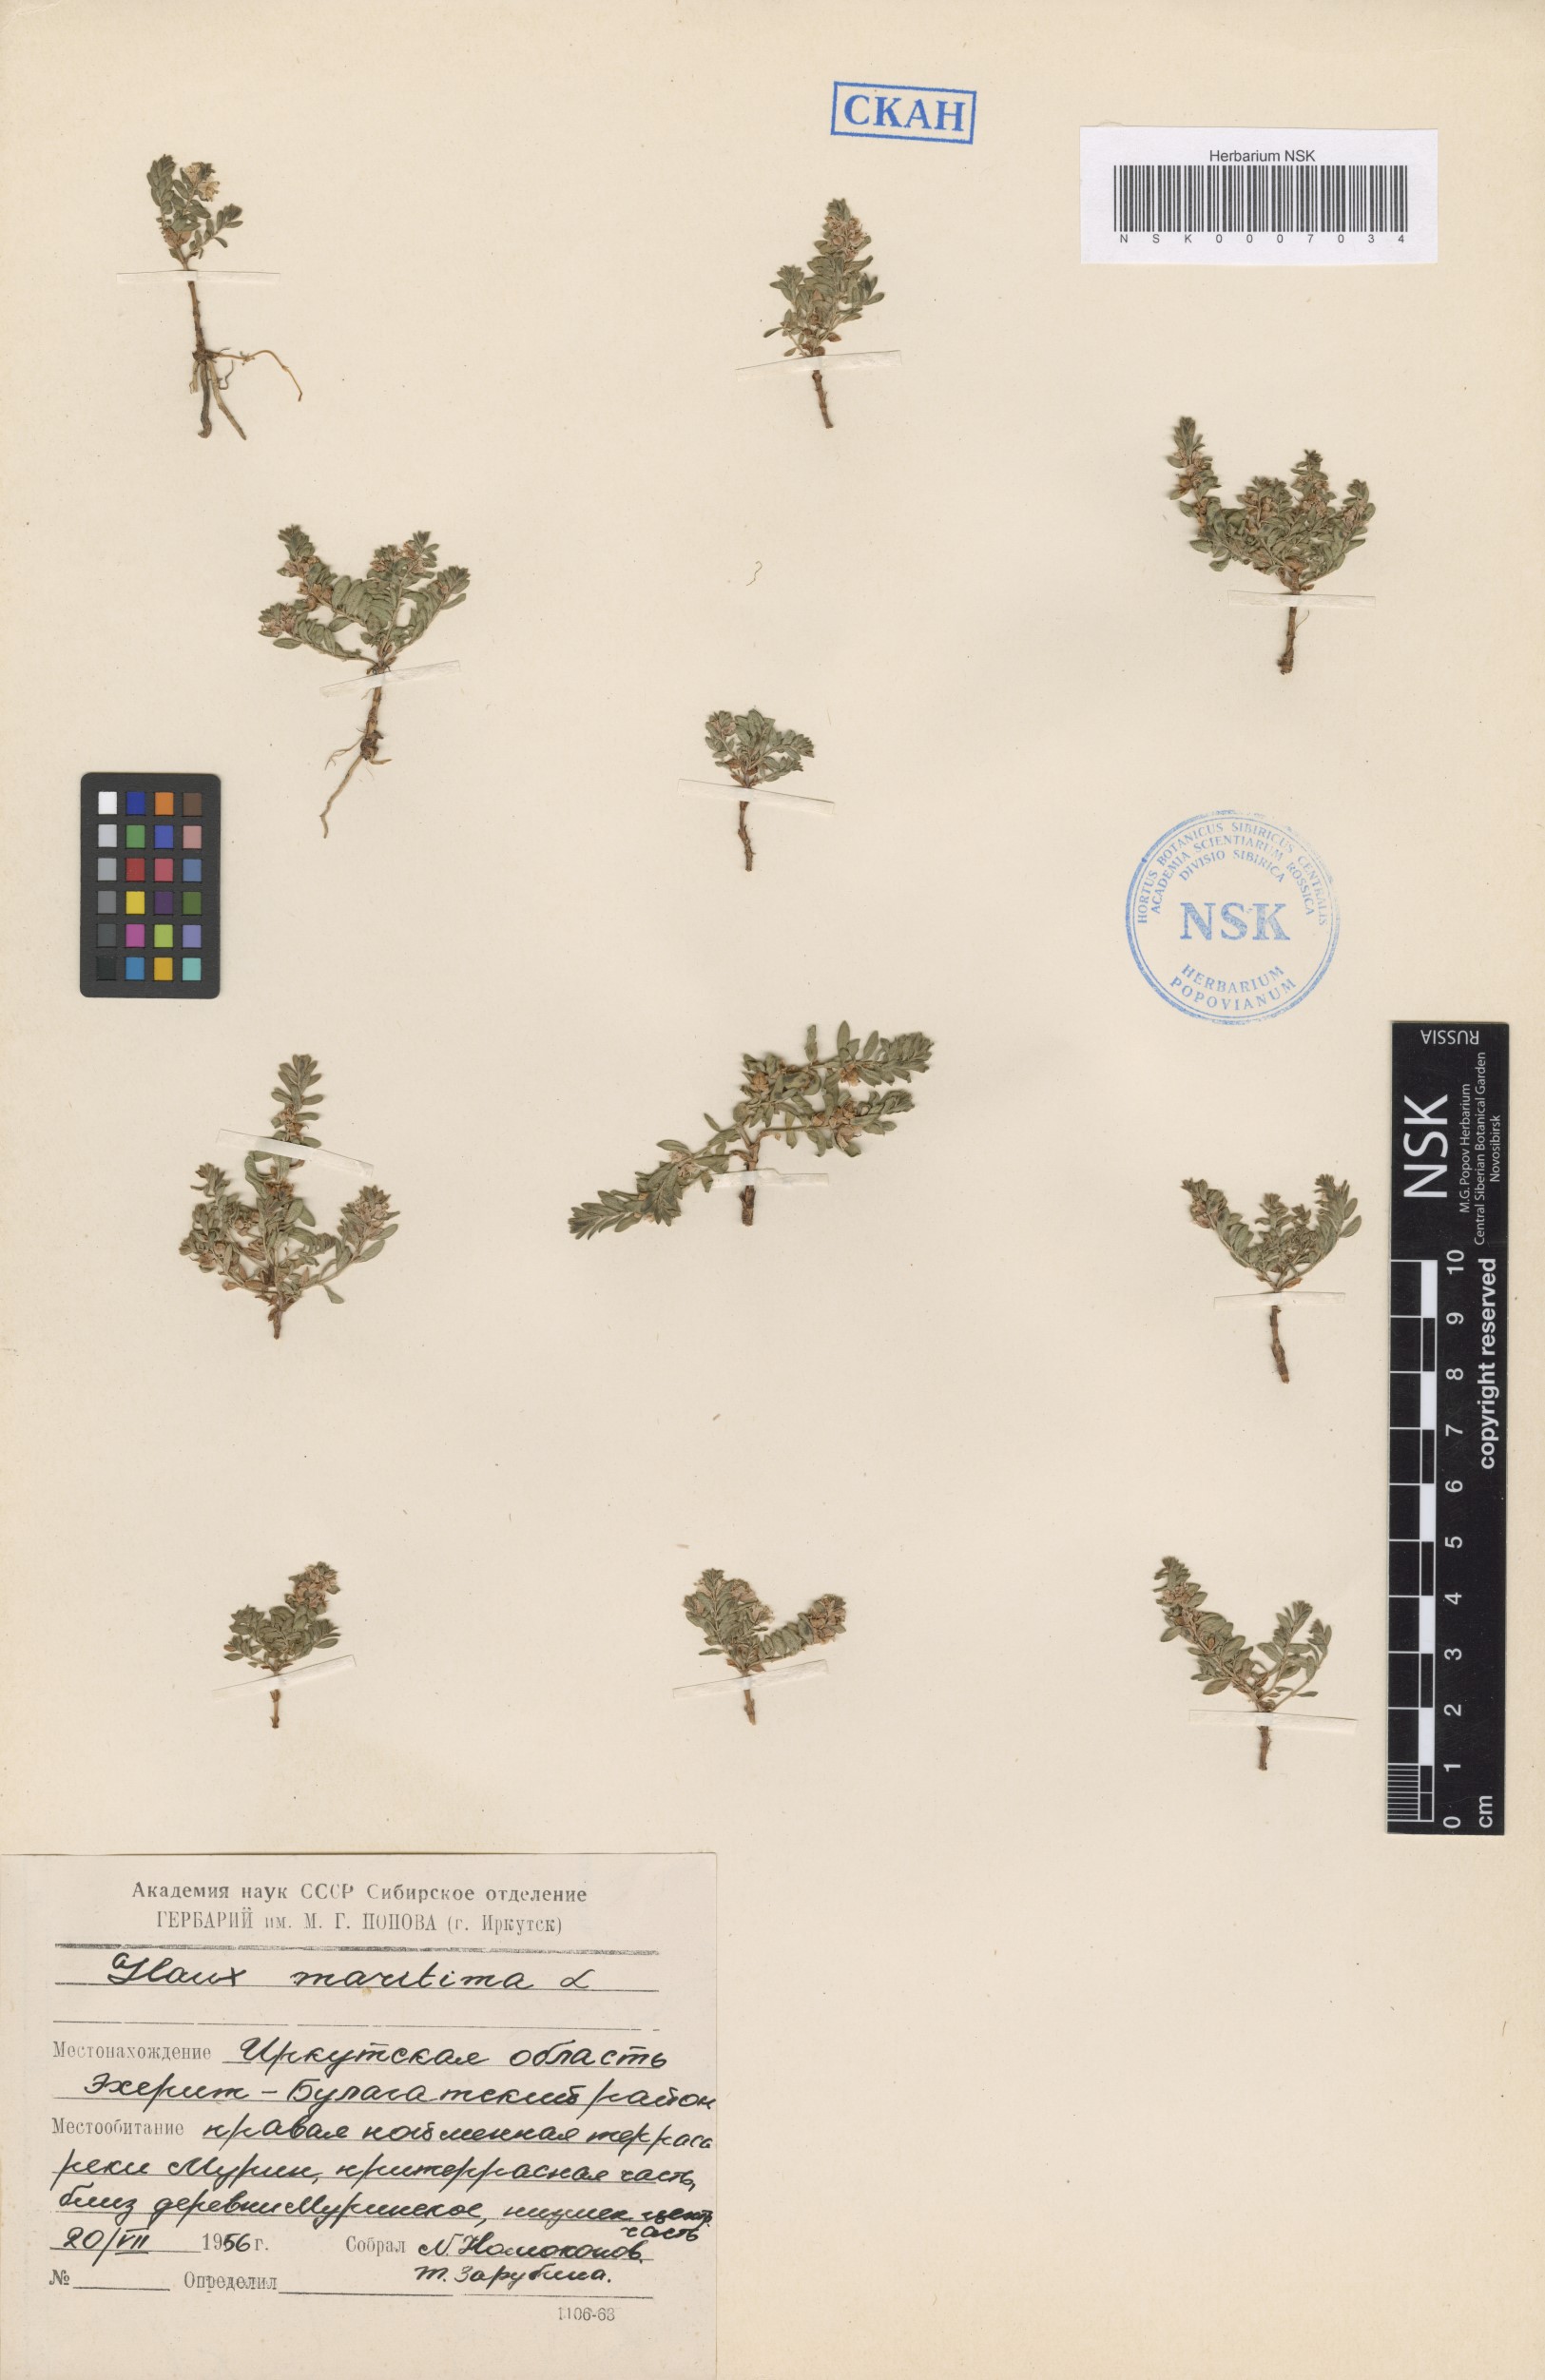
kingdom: Plantae
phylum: Tracheophyta
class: Magnoliopsida
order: Ericales
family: Primulaceae
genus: Lysimachia
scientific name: Lysimachia maritima
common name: Sea milkwort
